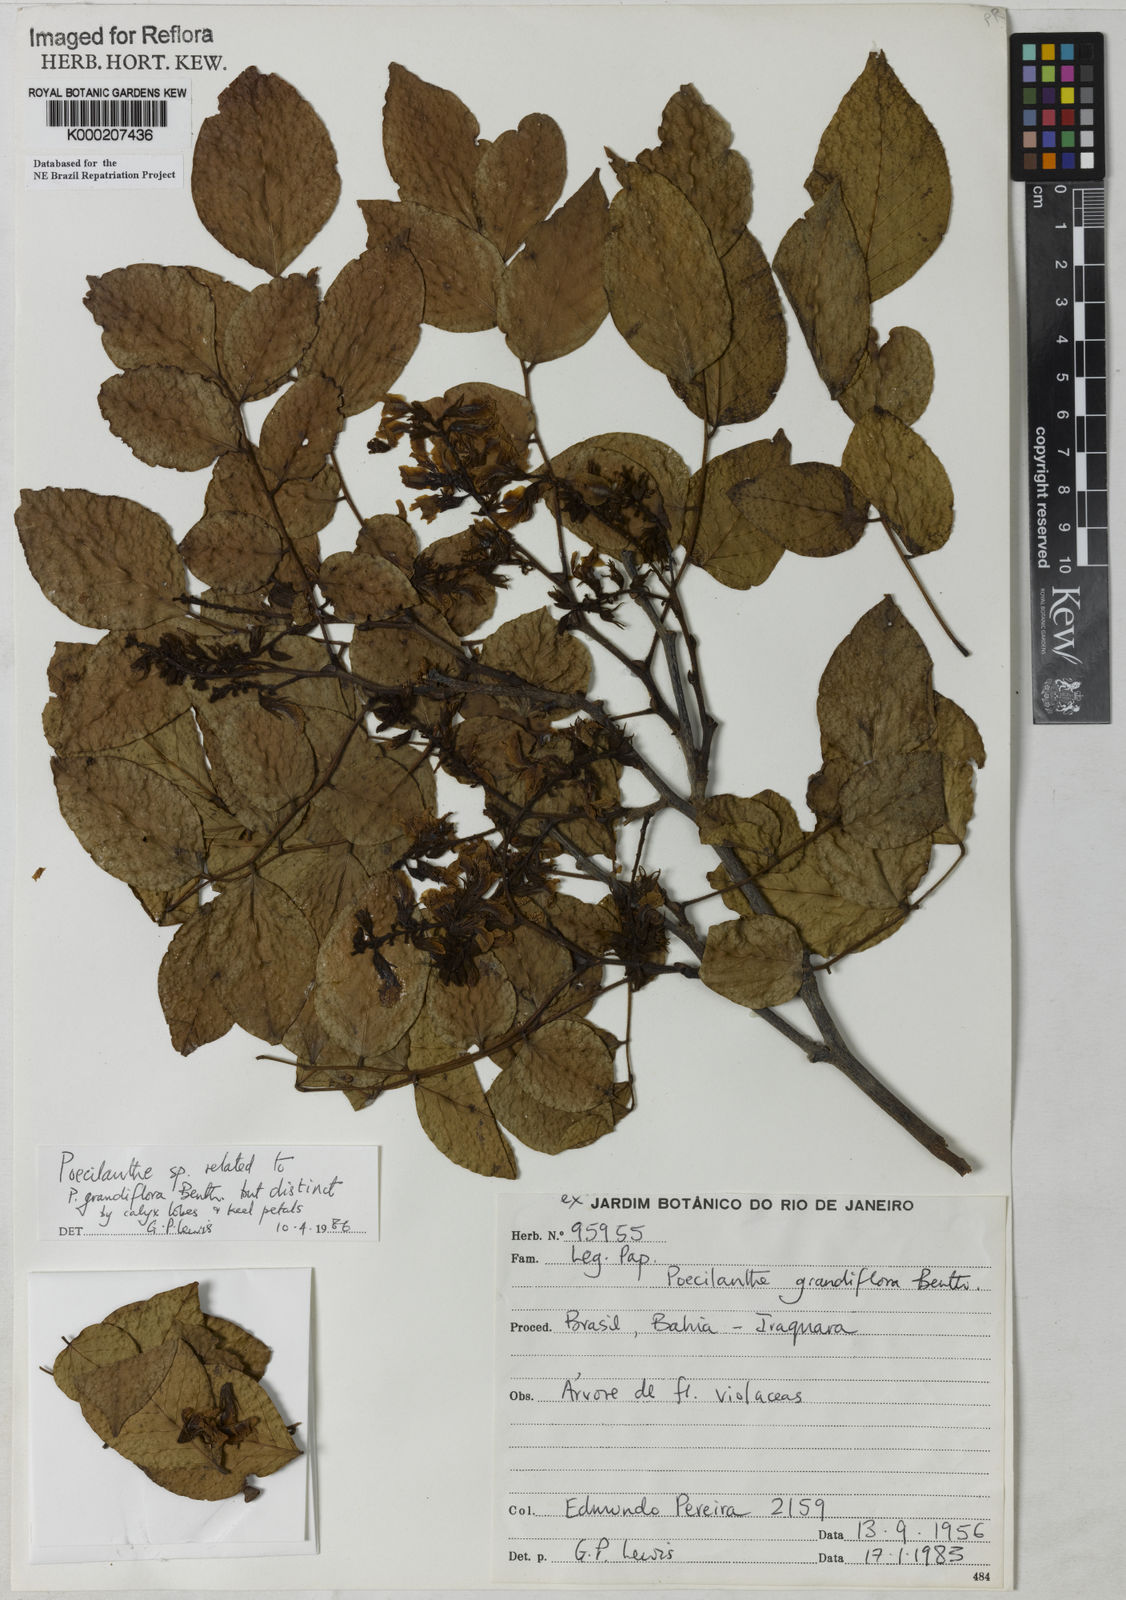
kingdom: Plantae
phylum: Tracheophyta
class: Magnoliopsida
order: Fabales
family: Fabaceae
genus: Poecilanthe
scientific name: Poecilanthe grandiflora
